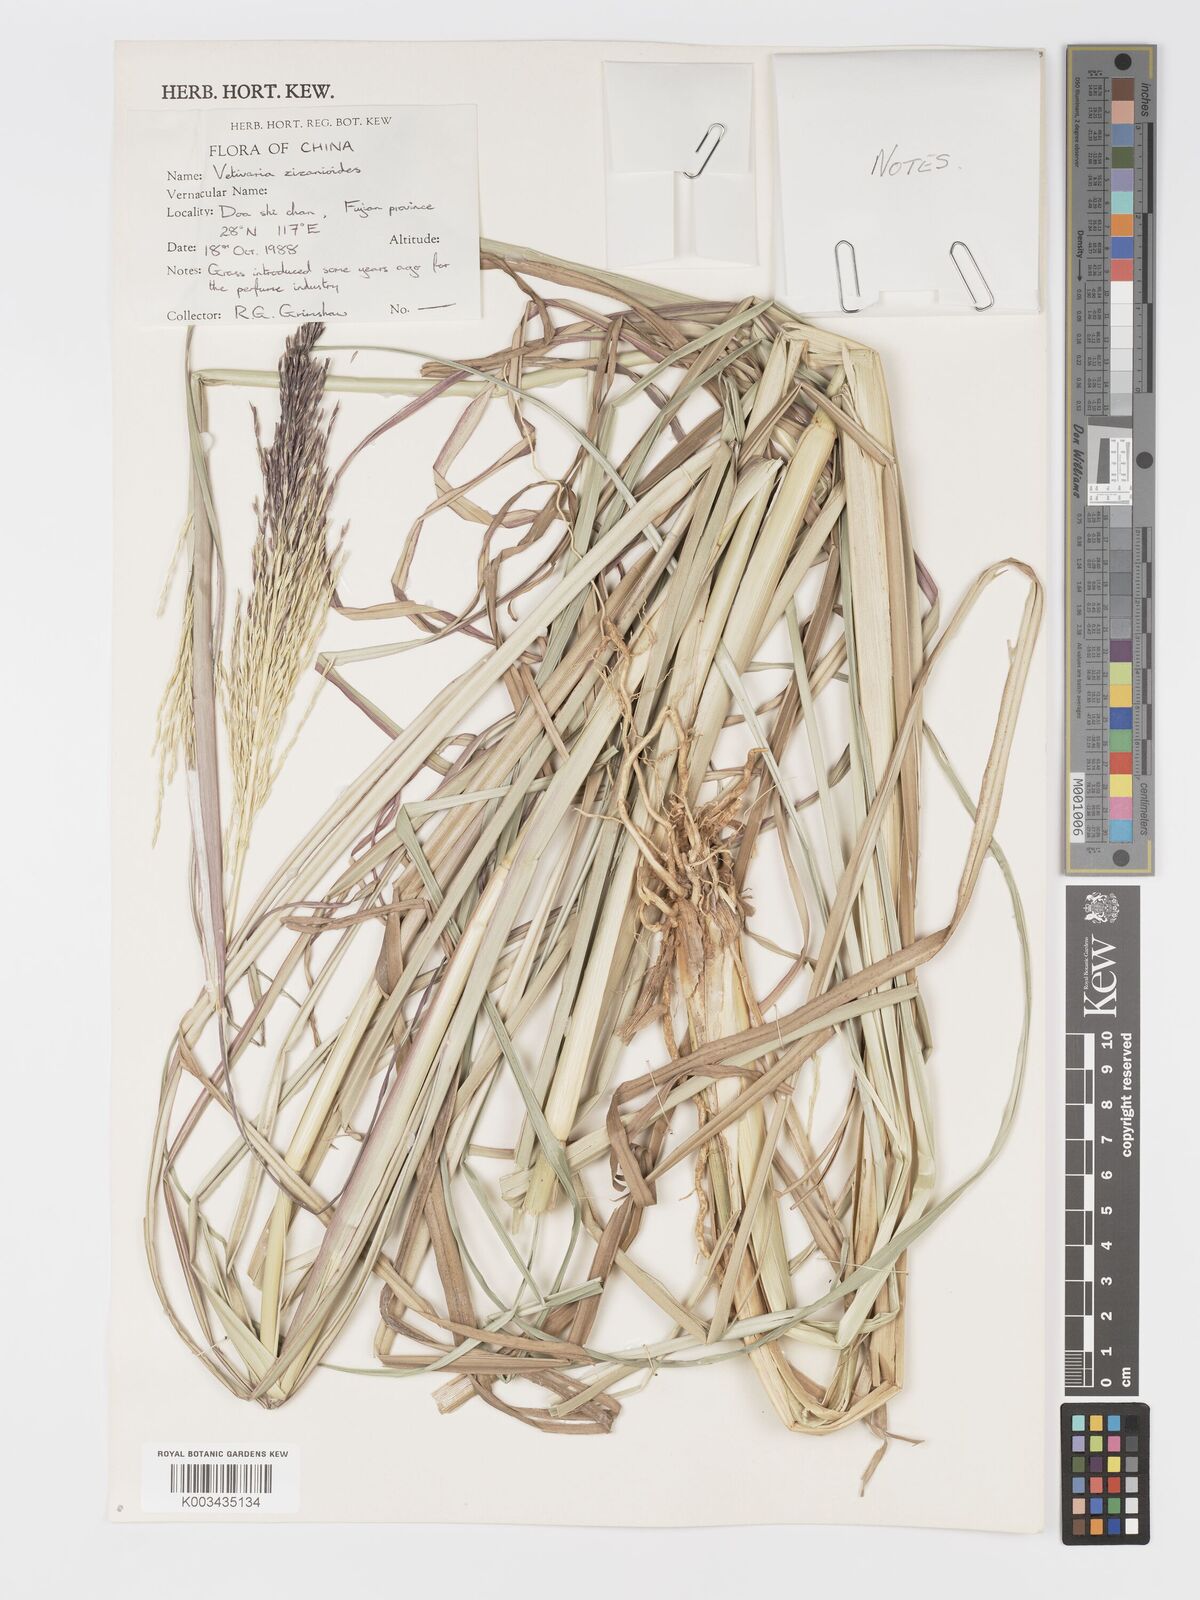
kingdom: Plantae
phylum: Tracheophyta
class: Liliopsida
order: Poales
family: Poaceae
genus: Chrysopogon
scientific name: Chrysopogon zizanioides
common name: False beardgrass
